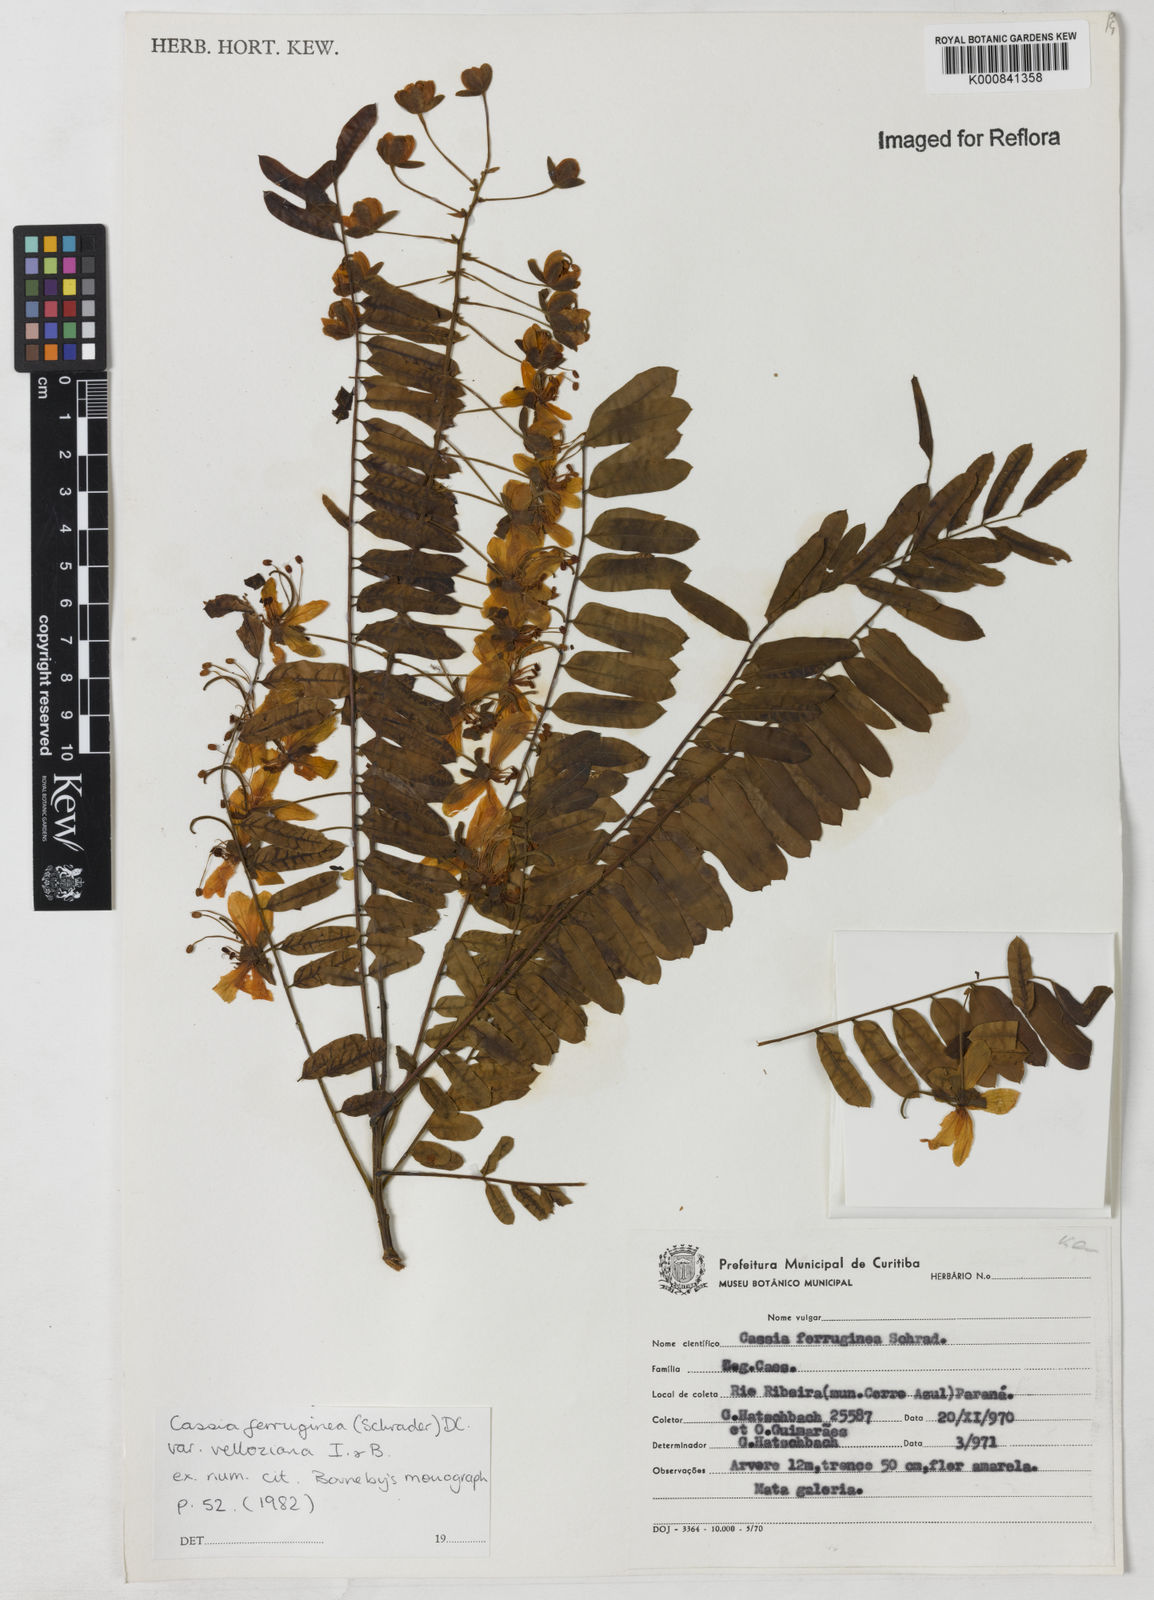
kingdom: Plantae
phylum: Tracheophyta
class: Magnoliopsida
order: Fabales
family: Fabaceae
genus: Cassia
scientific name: Cassia ferruginea
